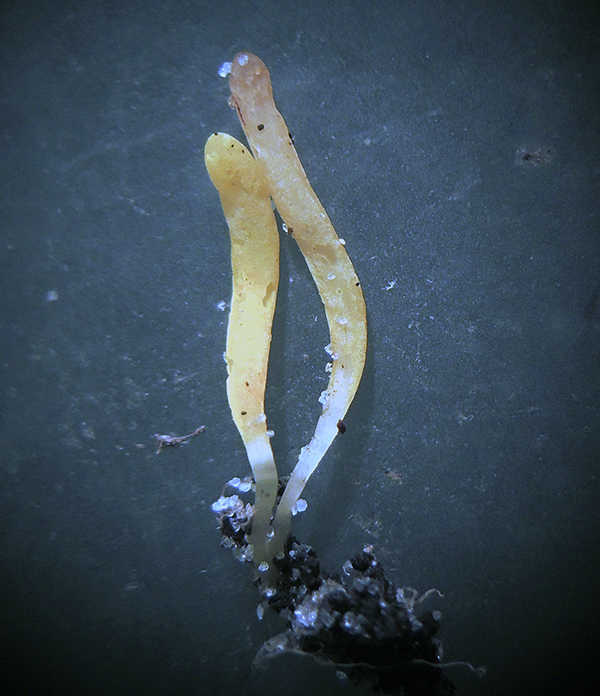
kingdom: Fungi
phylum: Basidiomycota
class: Agaricomycetes
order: Agaricales
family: Clavariaceae
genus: Clavulinopsis
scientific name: Clavulinopsis laeticolor
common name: flamme-køllesvamp
